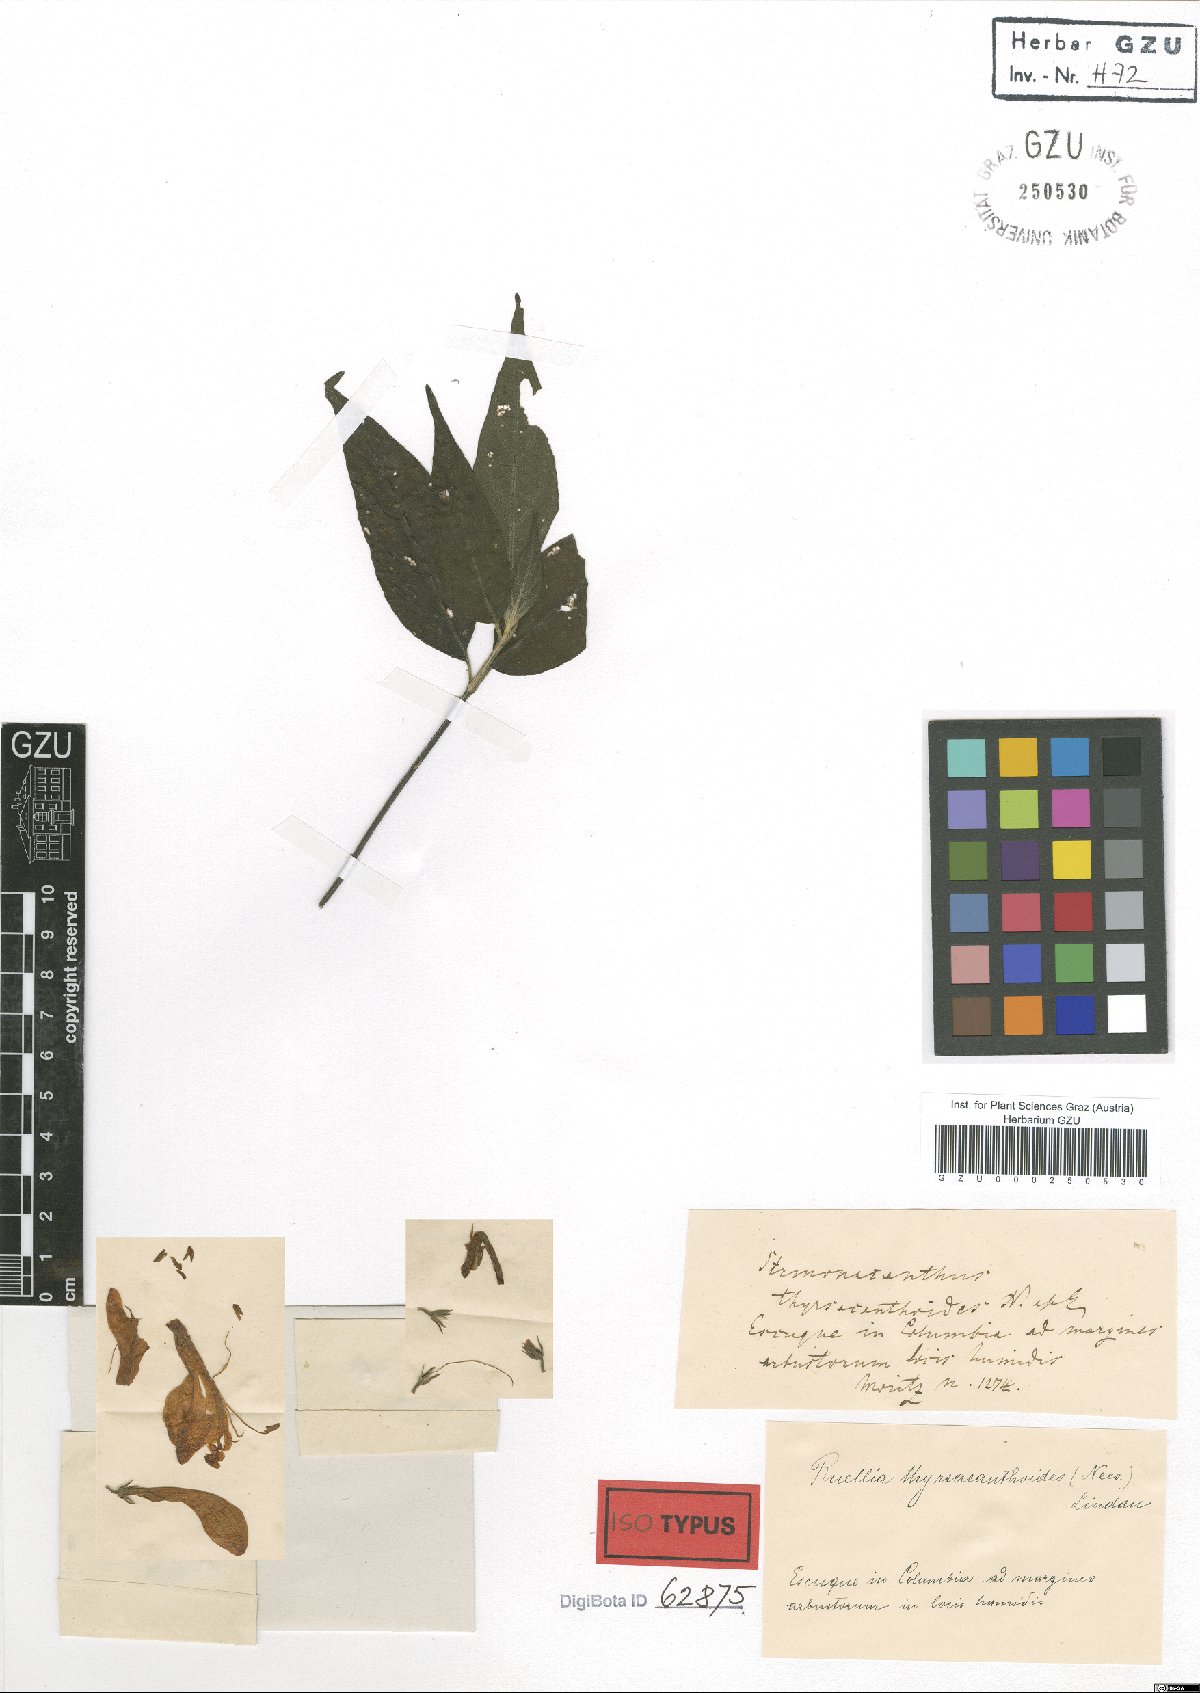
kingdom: Plantae
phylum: Tracheophyta
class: Magnoliopsida
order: Lamiales
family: Acanthaceae
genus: Ruellia
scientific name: Ruellia humboldtiana
